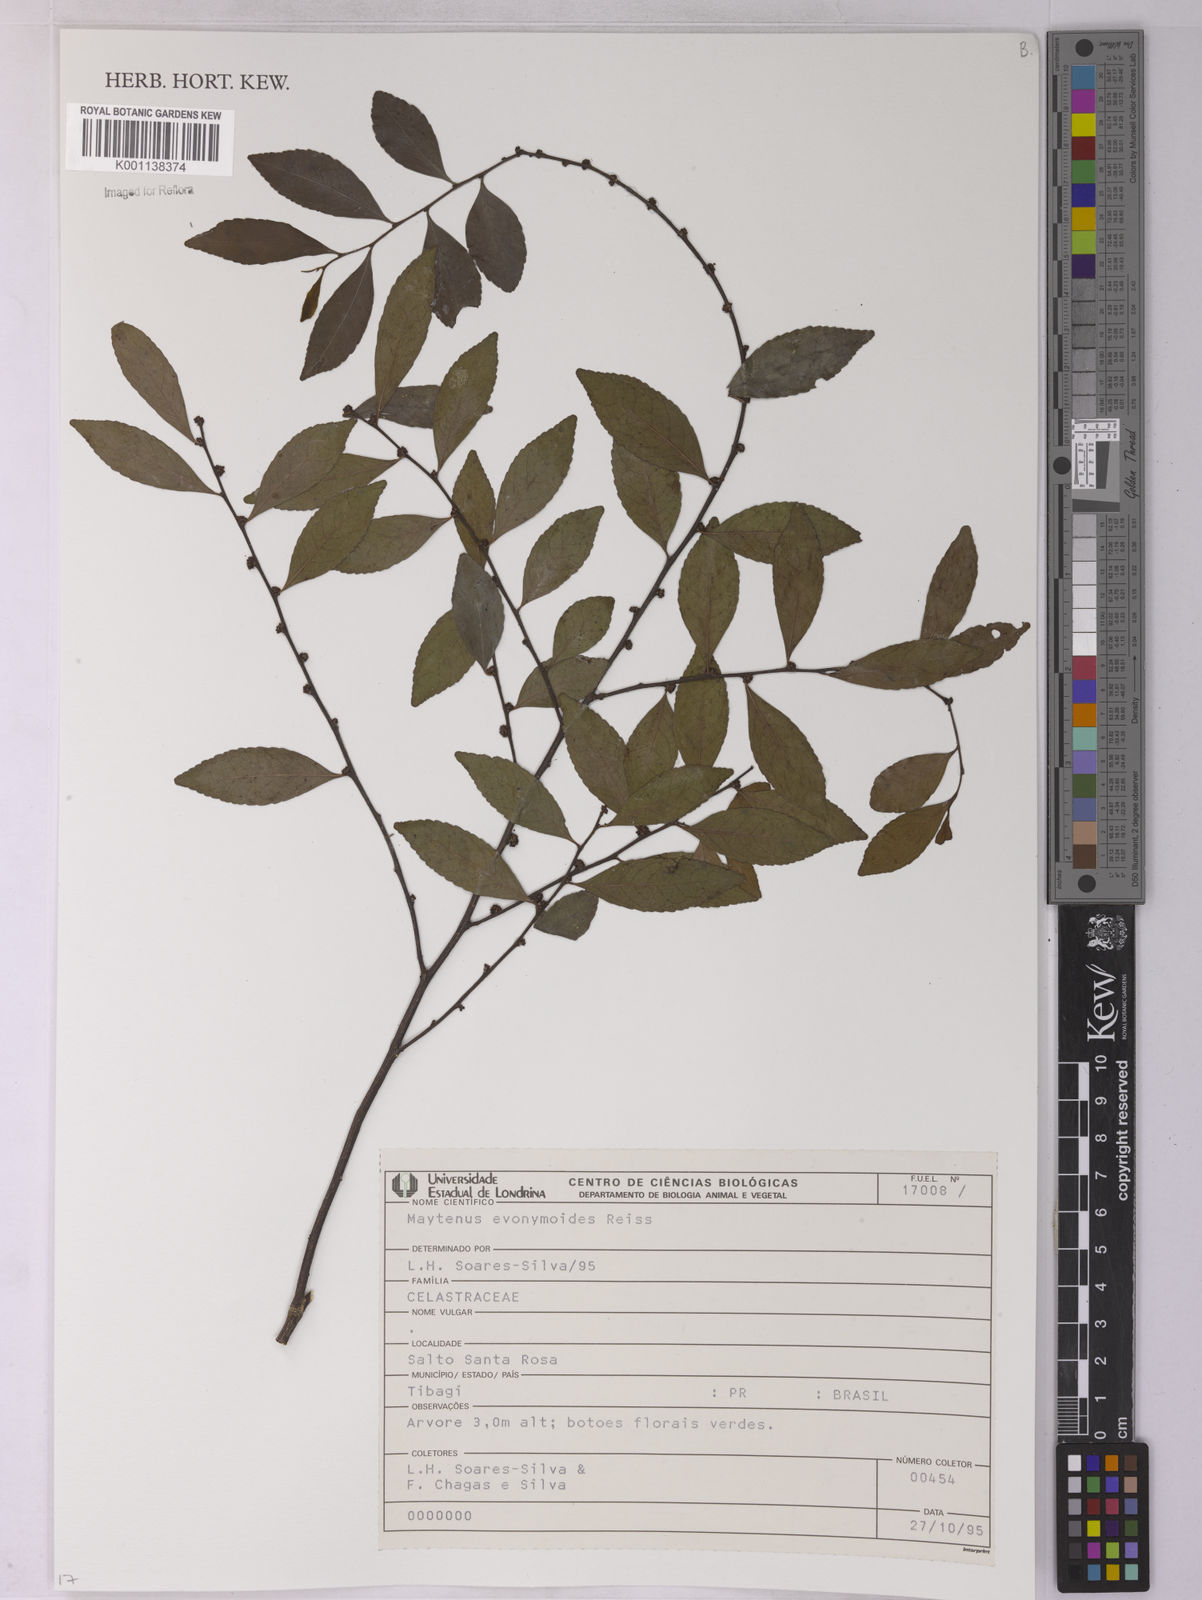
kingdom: Plantae
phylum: Tracheophyta
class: Magnoliopsida
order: Celastrales
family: Celastraceae
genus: Monteverdia
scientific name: Monteverdia evonymoides
